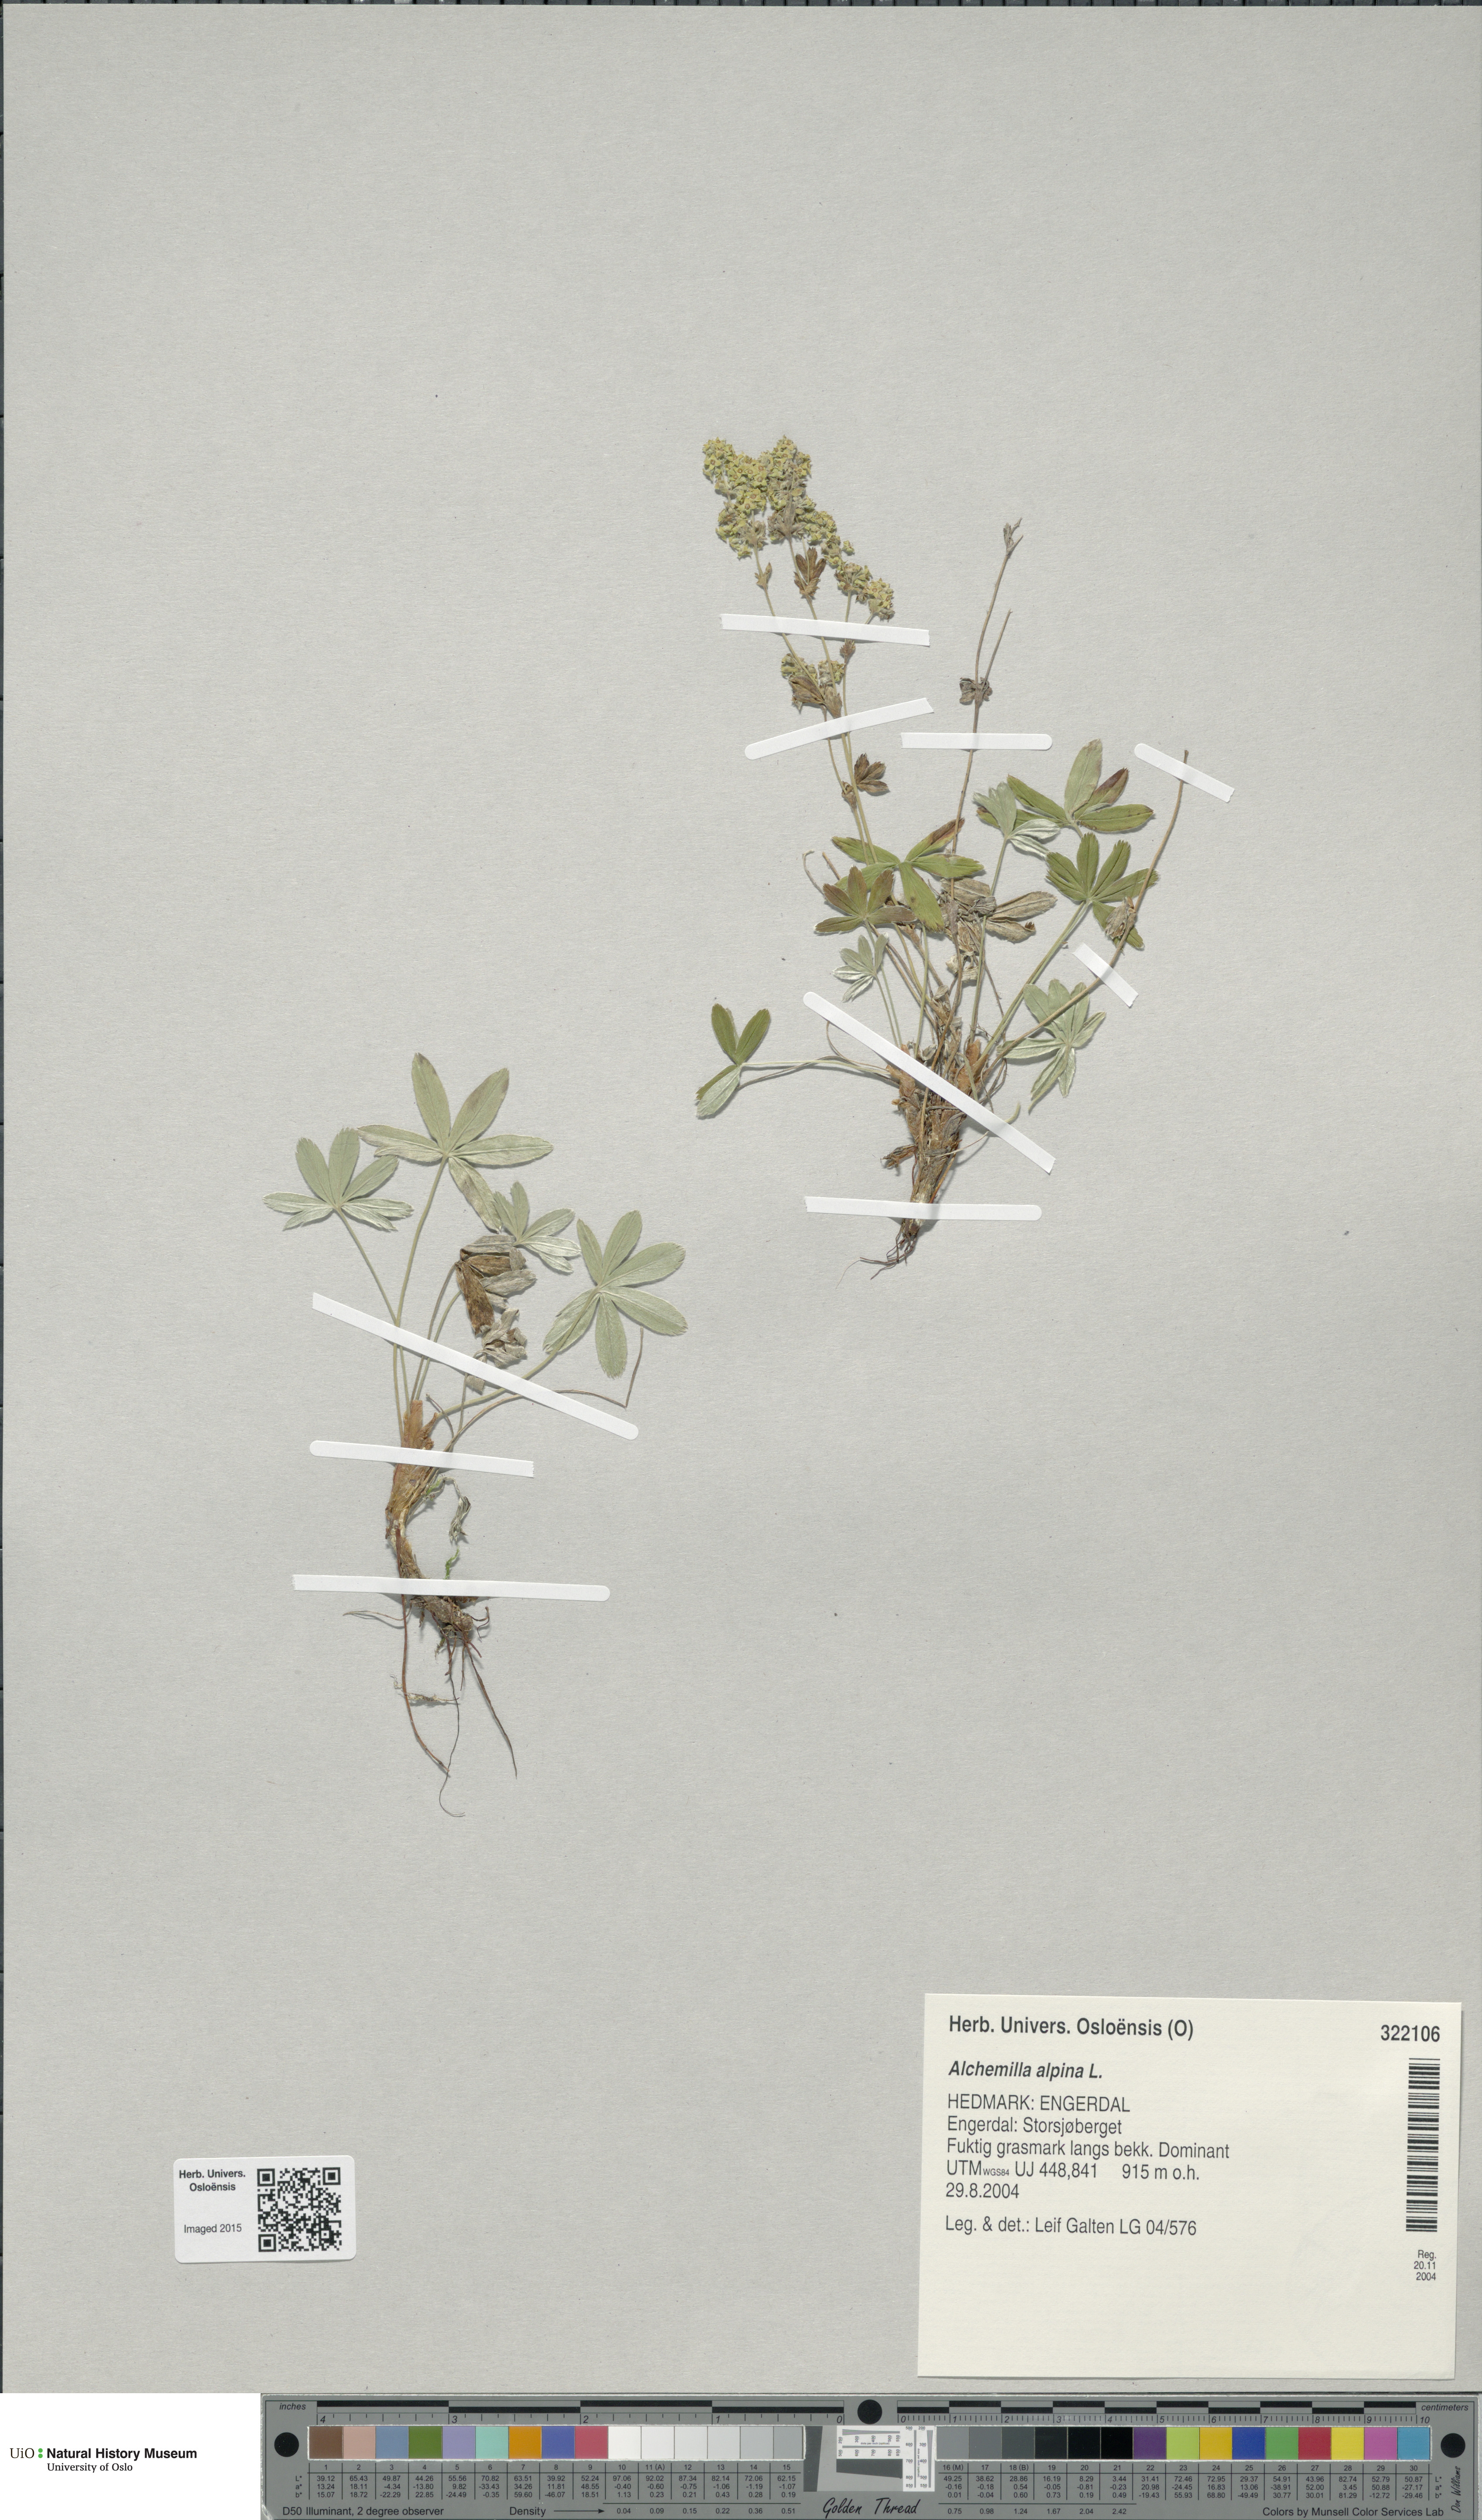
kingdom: Plantae
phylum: Tracheophyta
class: Magnoliopsida
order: Rosales
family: Rosaceae
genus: Alchemilla
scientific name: Alchemilla alpina
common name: Alpine lady's-mantle
